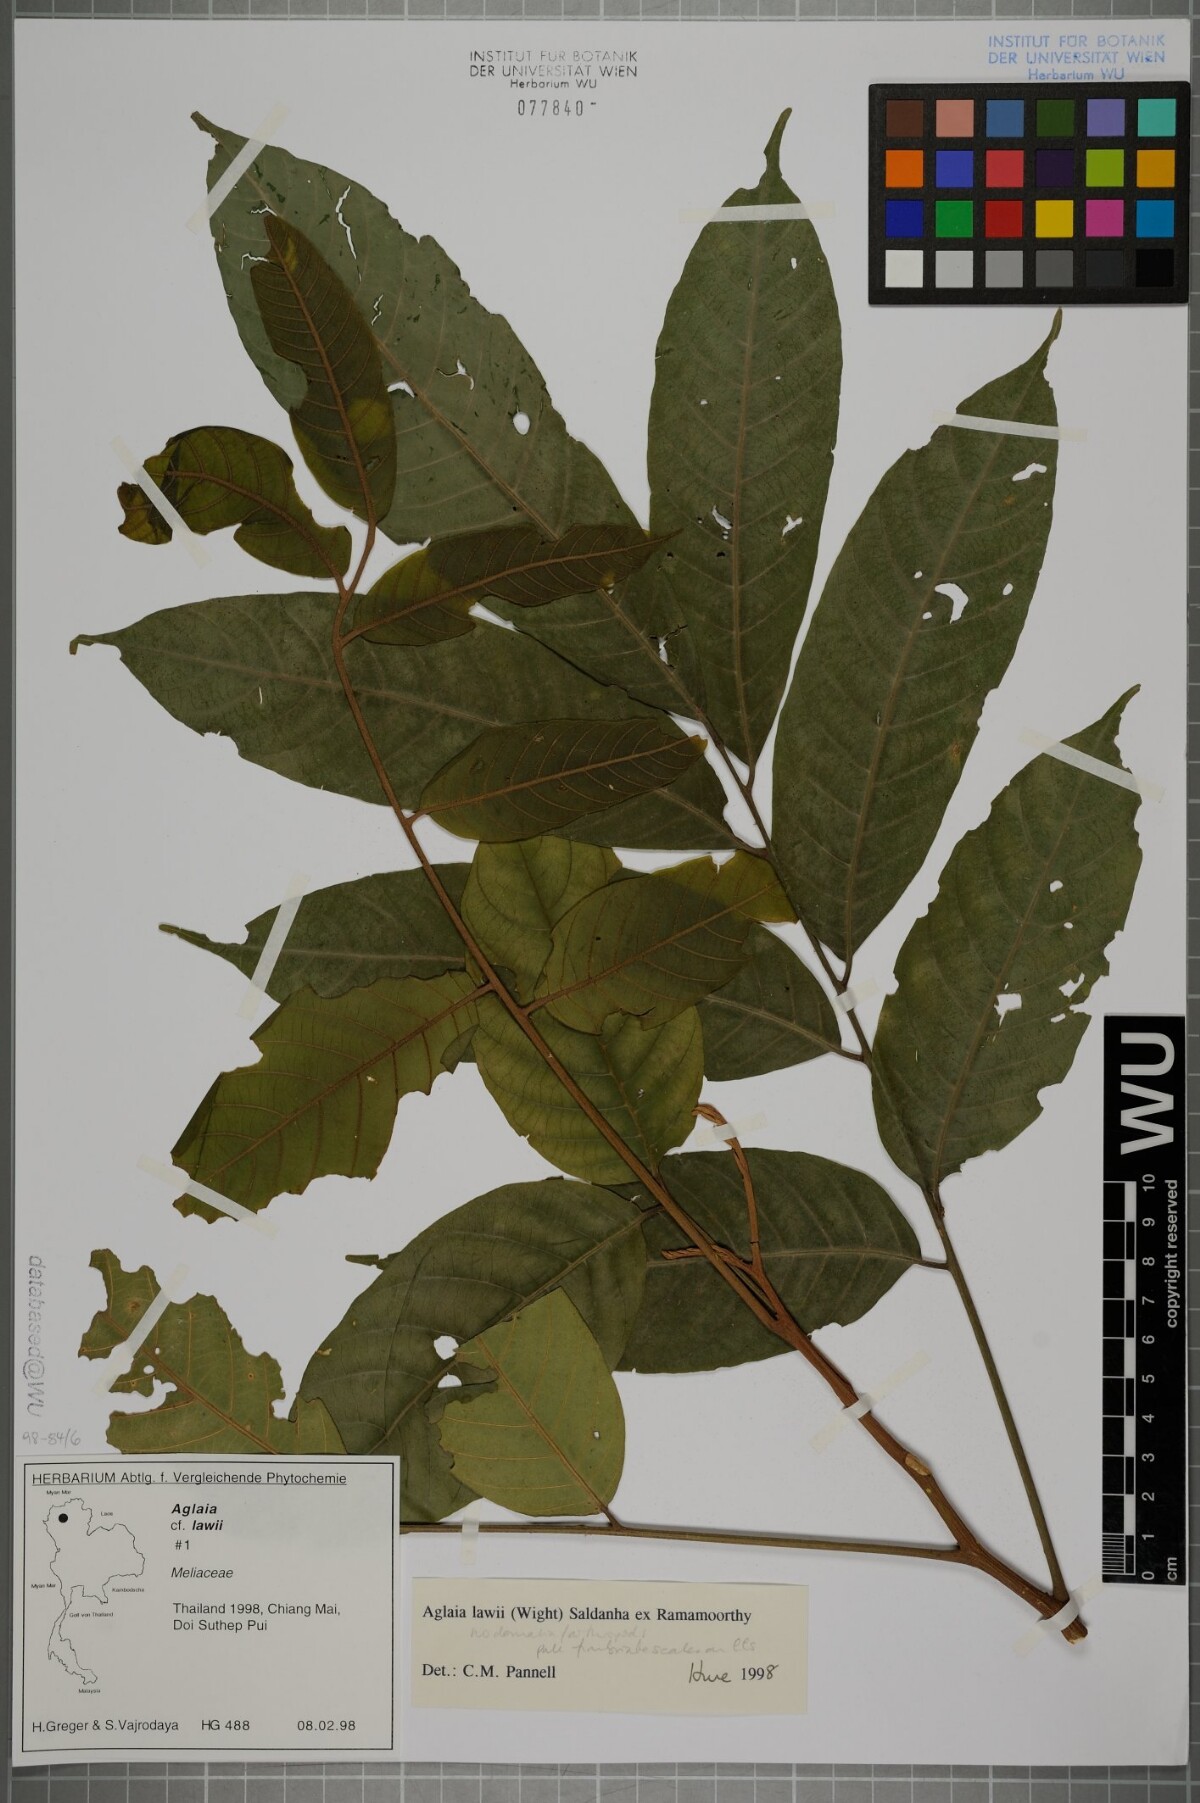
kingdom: Plantae
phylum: Tracheophyta
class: Magnoliopsida
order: Sapindales
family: Meliaceae
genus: Aglaia
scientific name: Aglaia lawii
